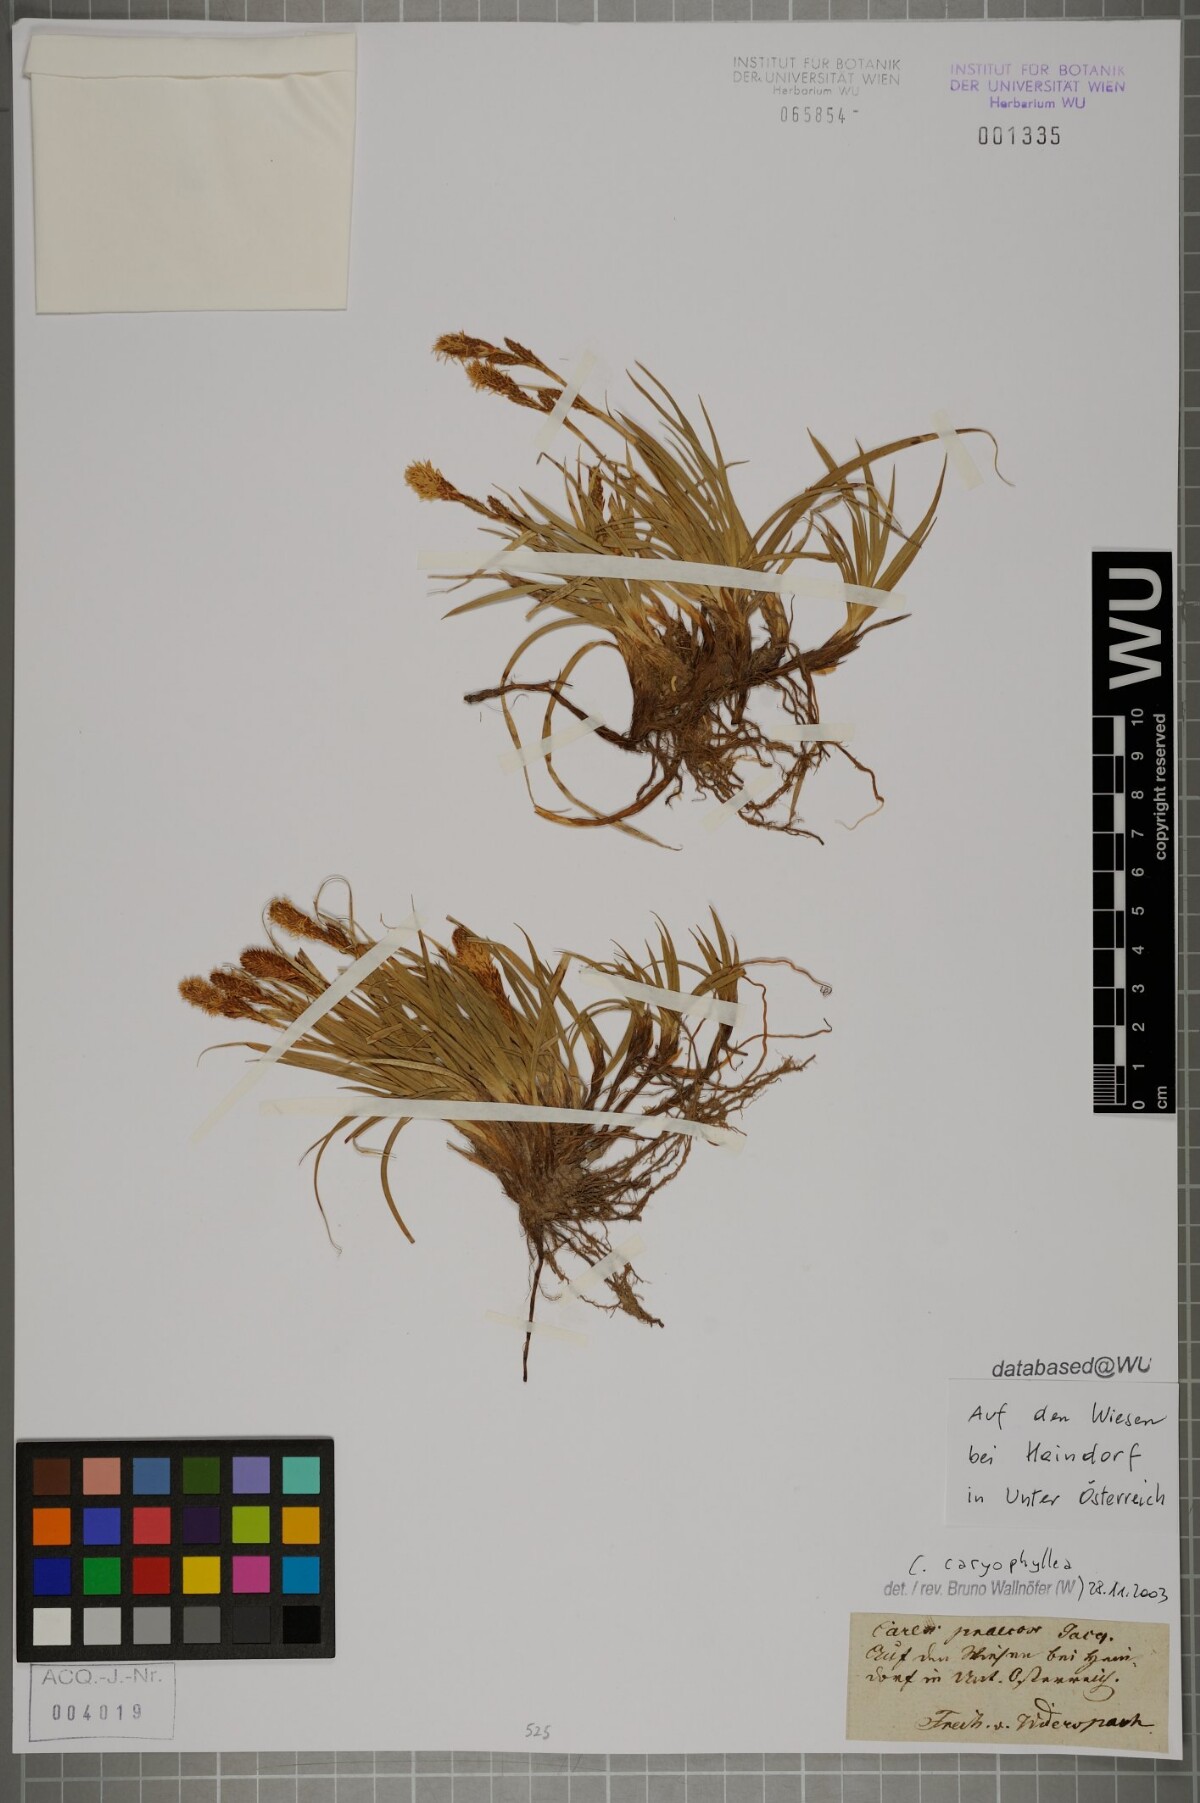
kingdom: Plantae
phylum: Tracheophyta
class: Liliopsida
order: Poales
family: Cyperaceae
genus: Carex
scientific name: Carex caryophyllea
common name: Spring sedge
